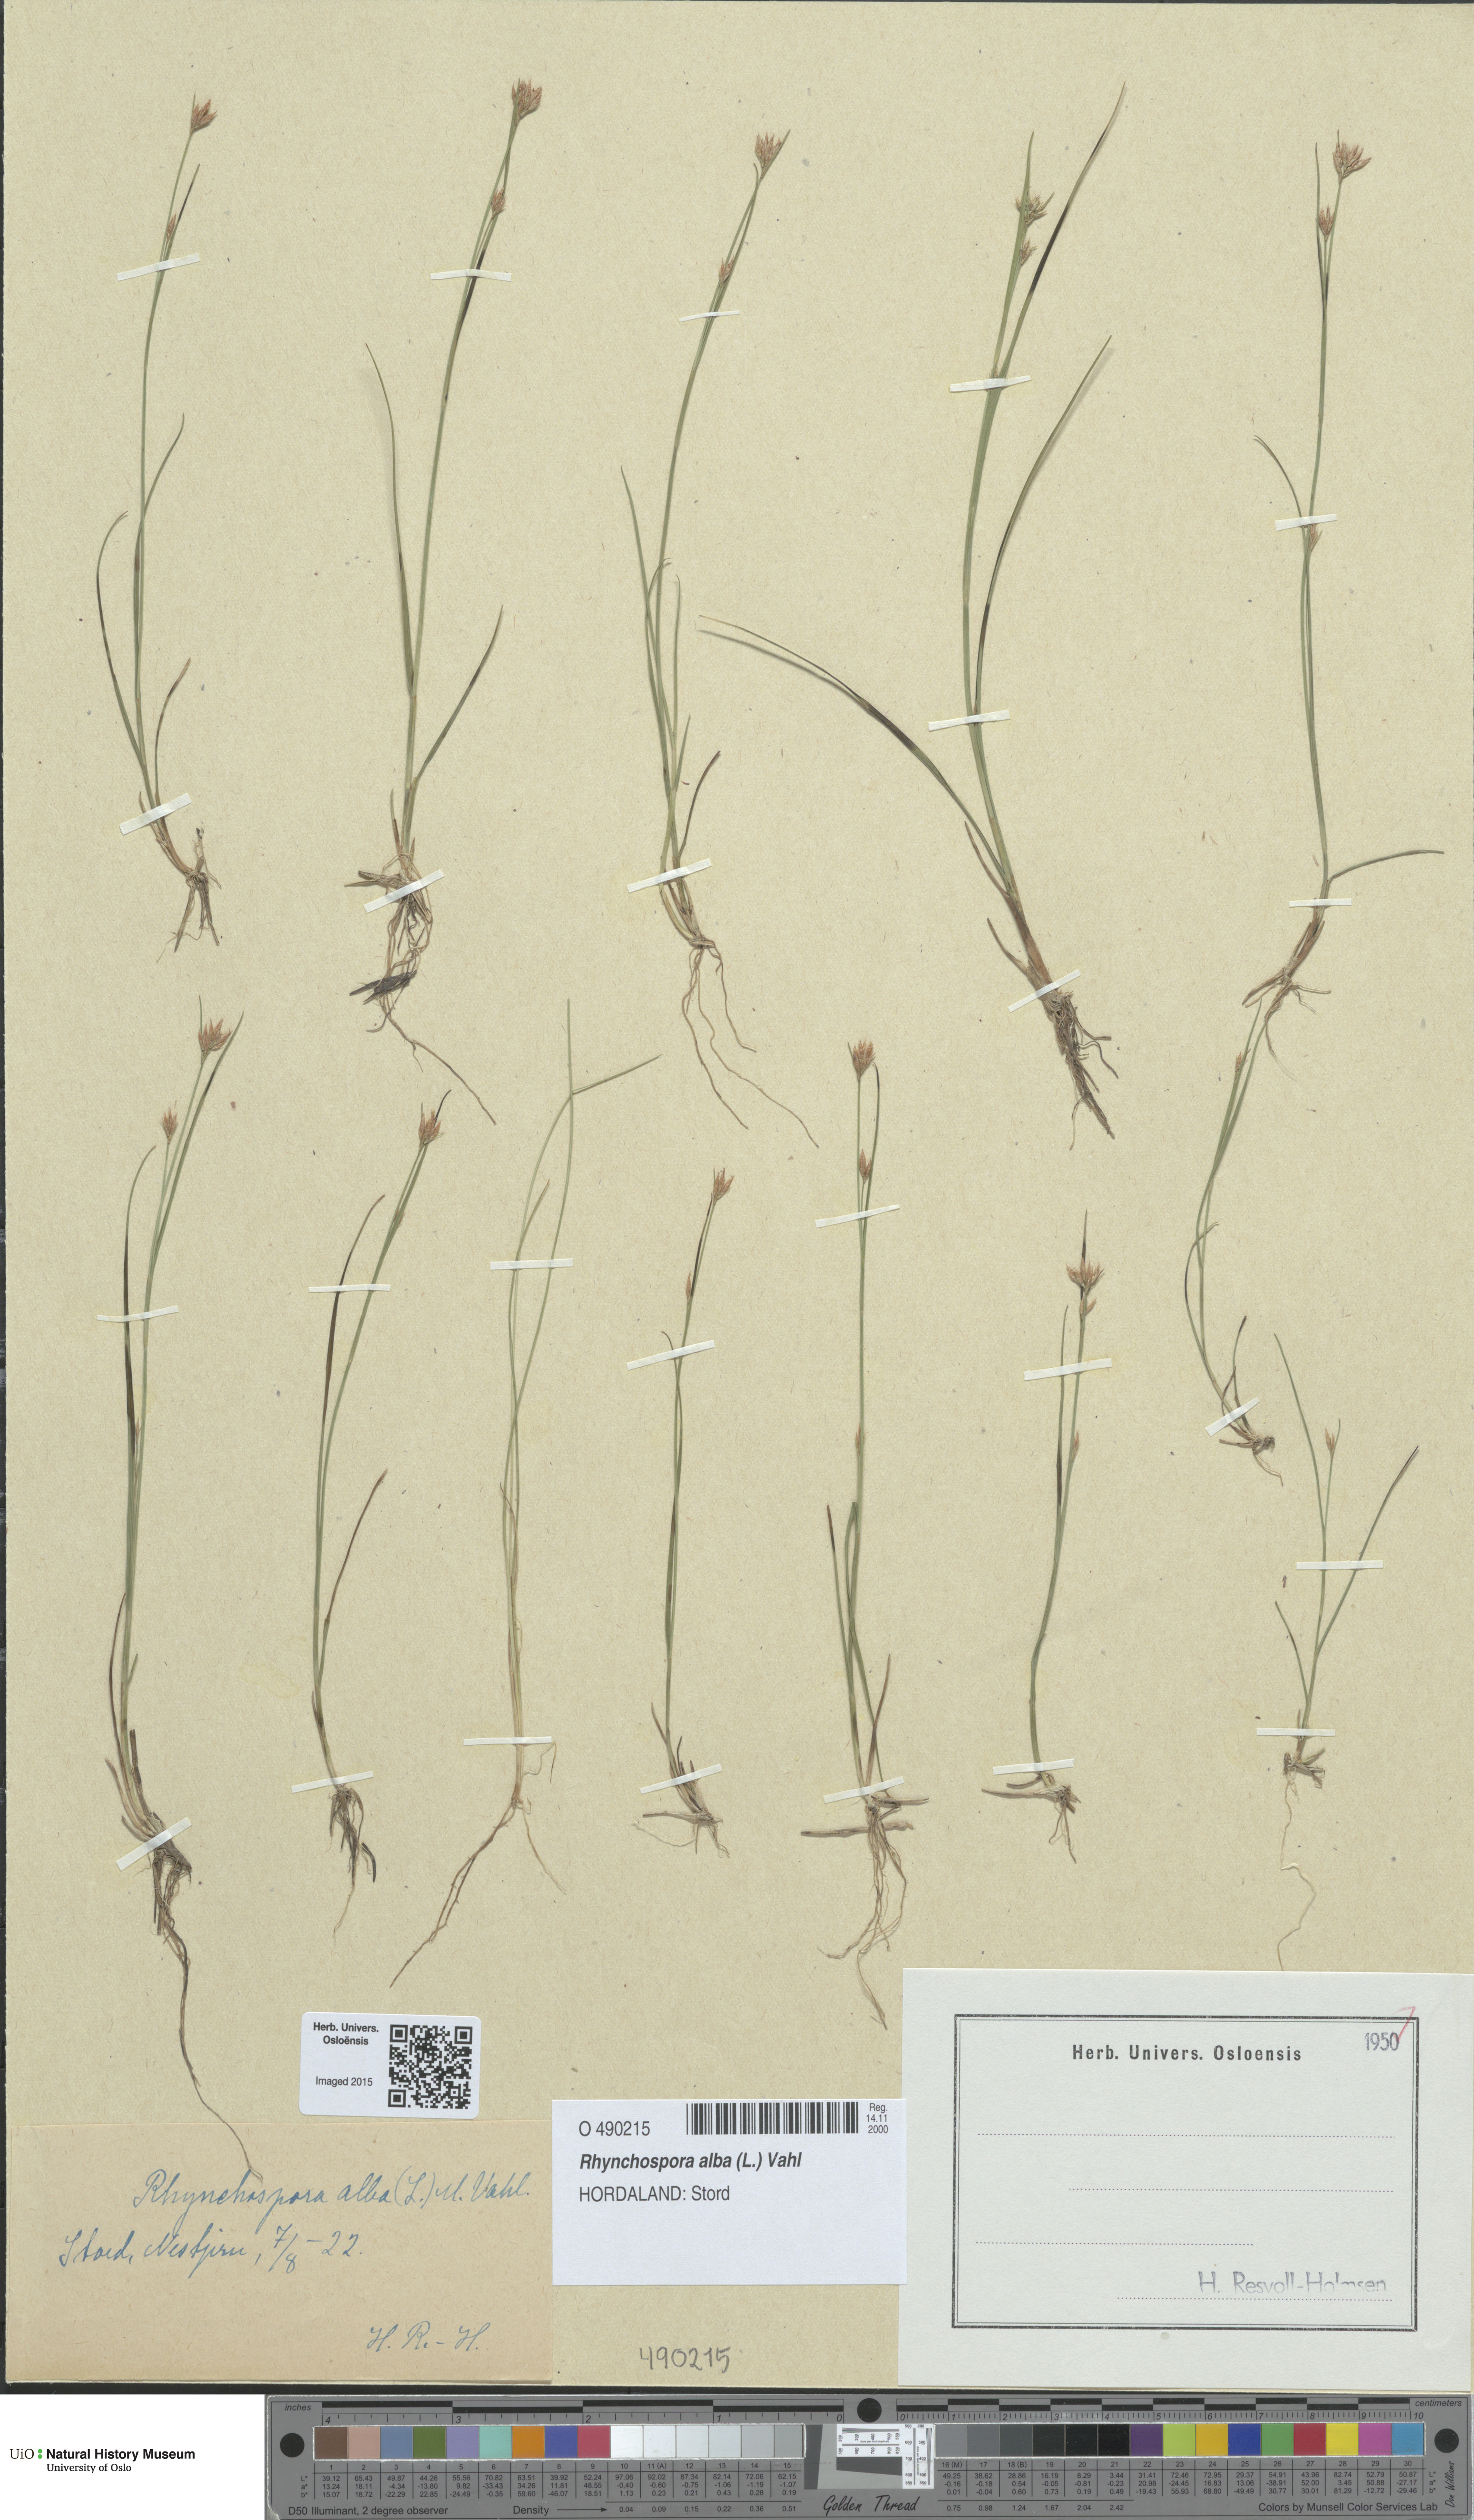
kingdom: Plantae
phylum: Tracheophyta
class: Liliopsida
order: Poales
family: Cyperaceae
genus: Rhynchospora
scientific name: Rhynchospora alba
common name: White beak-sedge
